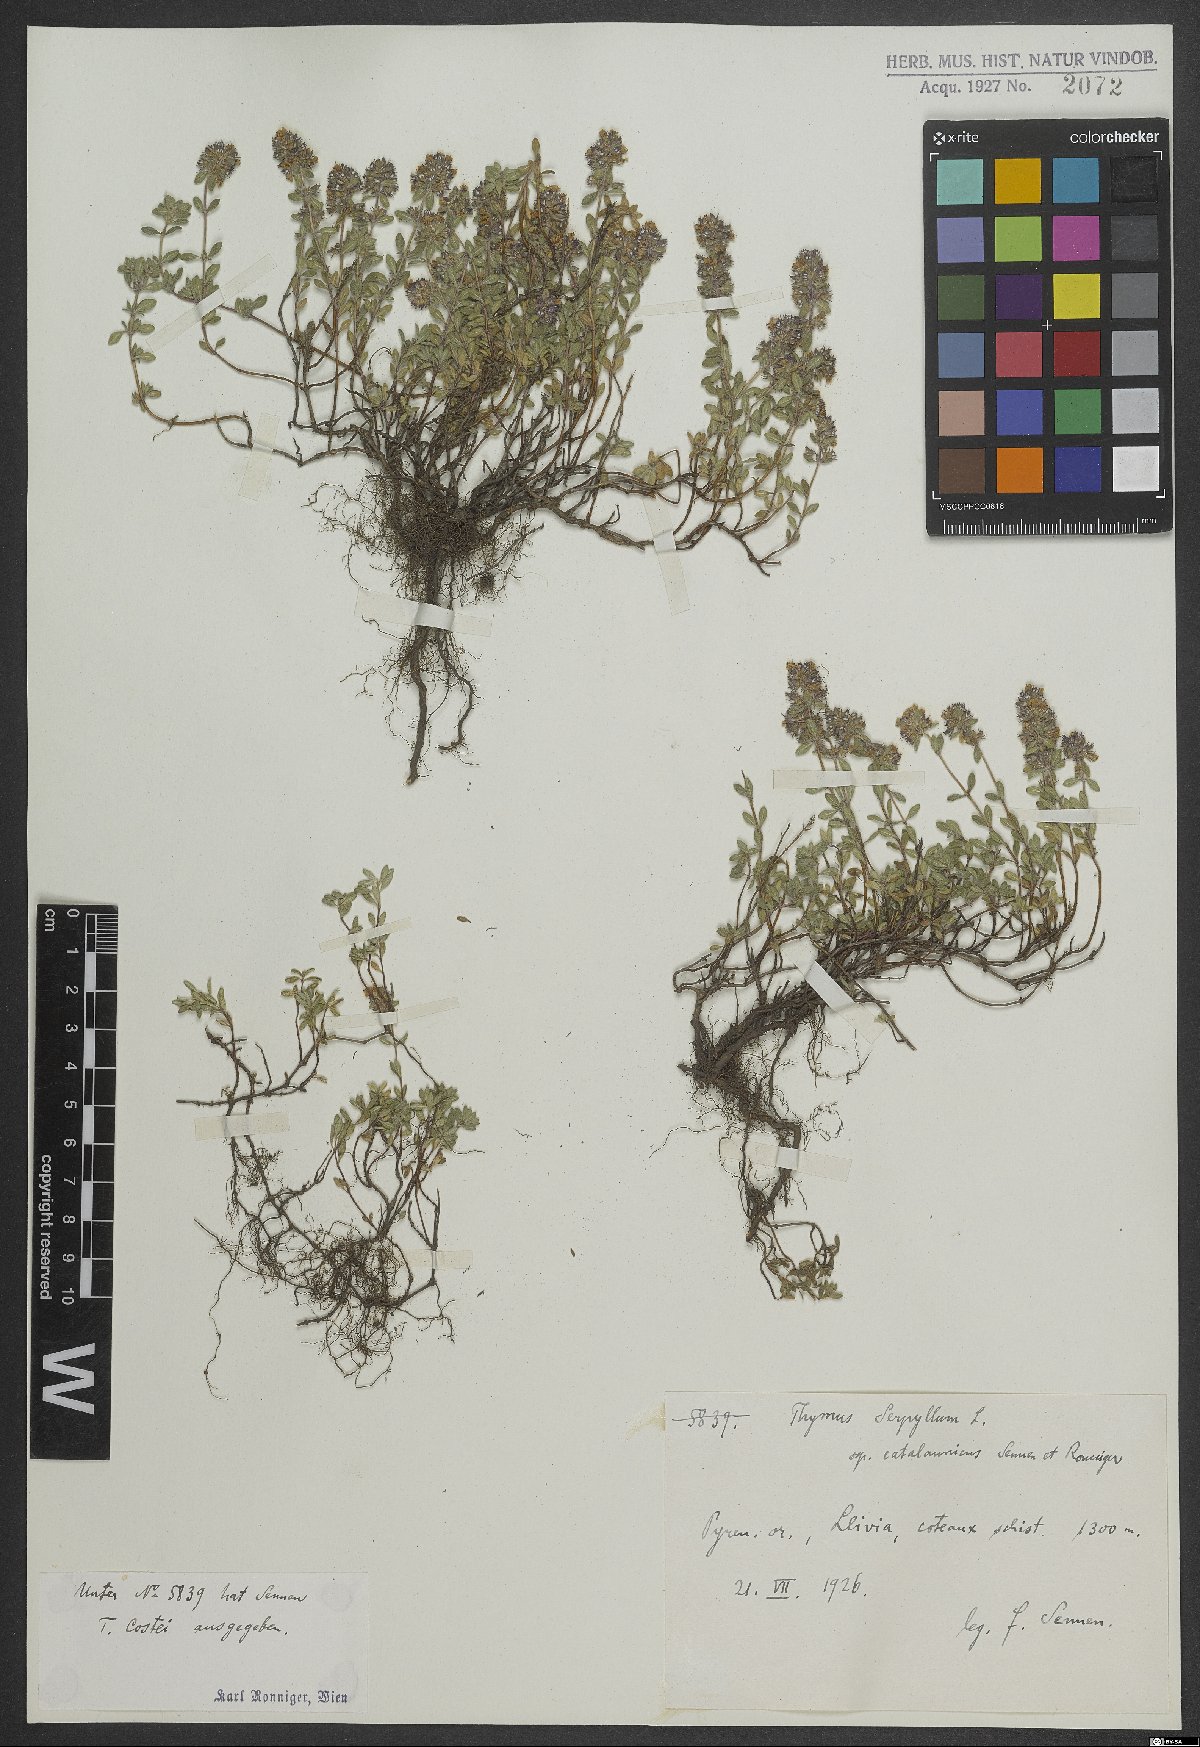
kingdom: Plantae
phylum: Tracheophyta
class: Magnoliopsida
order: Lamiales
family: Lamiaceae
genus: Thymus
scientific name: Thymus serpyllum
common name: Breckland thyme
